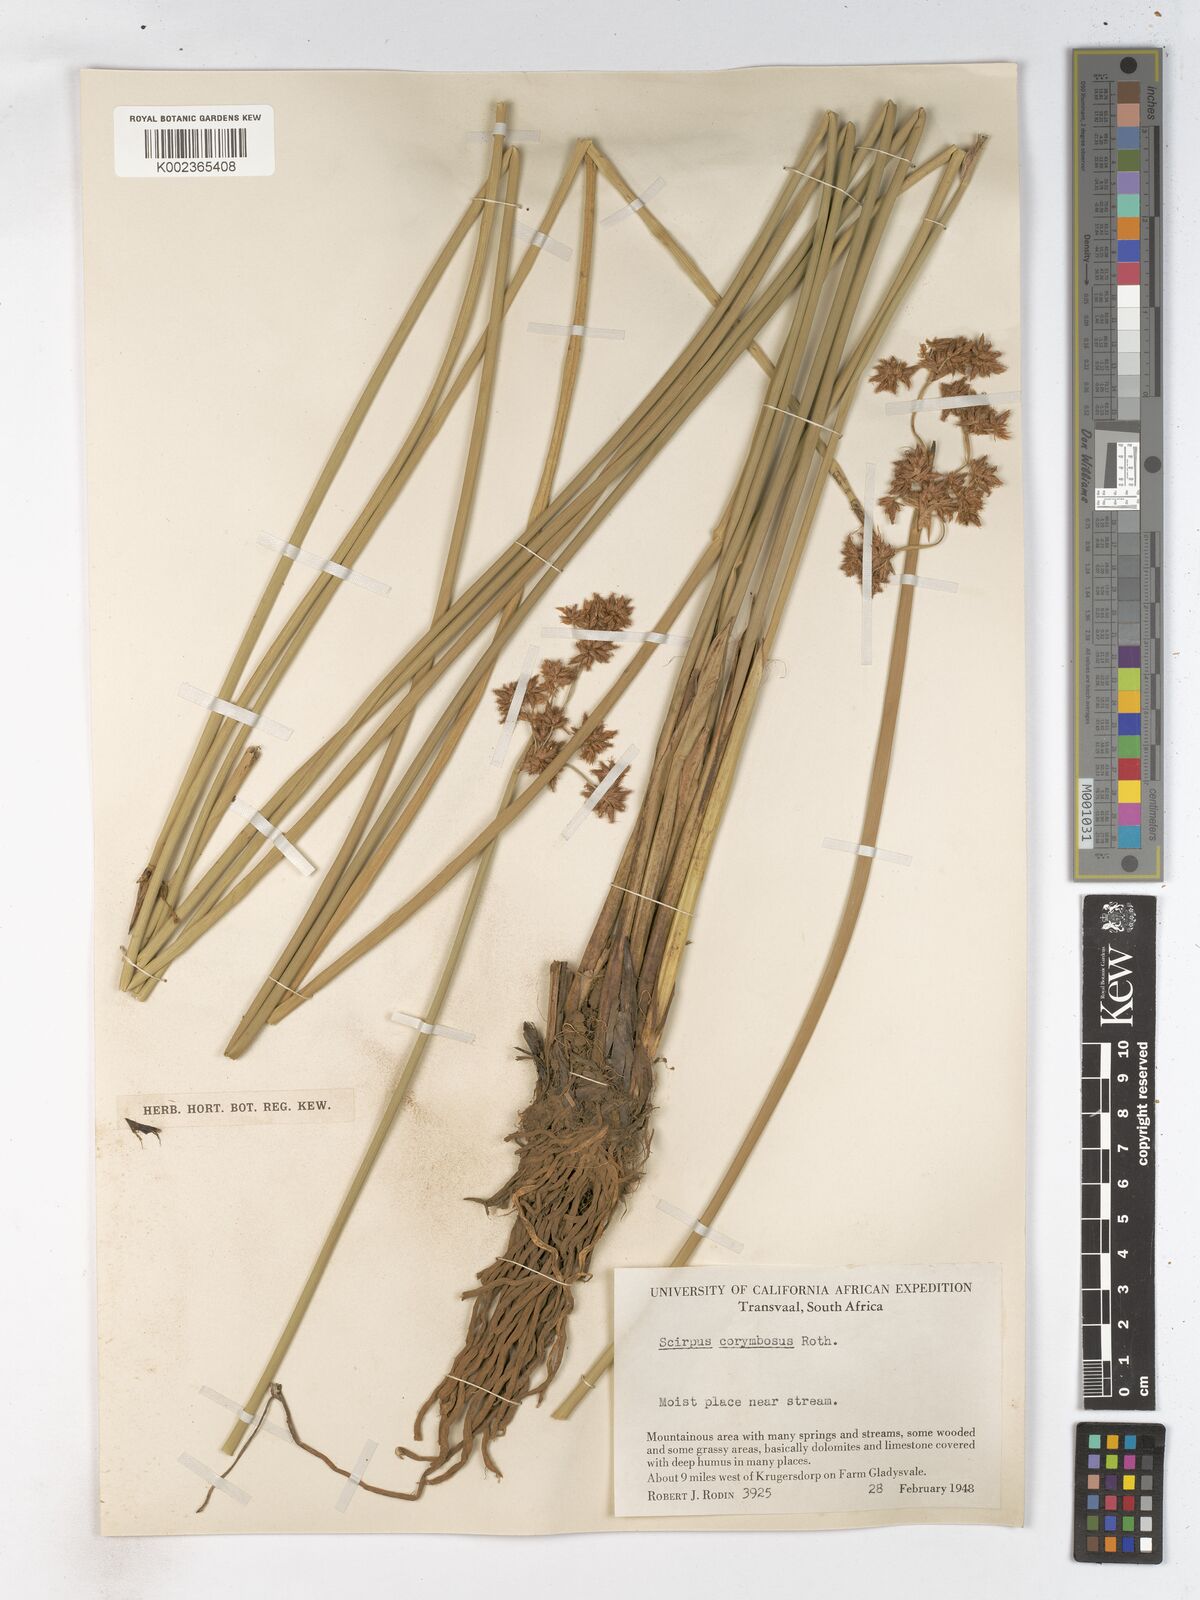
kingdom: Plantae
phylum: Tracheophyta
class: Liliopsida
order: Poales
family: Cyperaceae
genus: Schoenoplectiella
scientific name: Schoenoplectiella brachyceras
